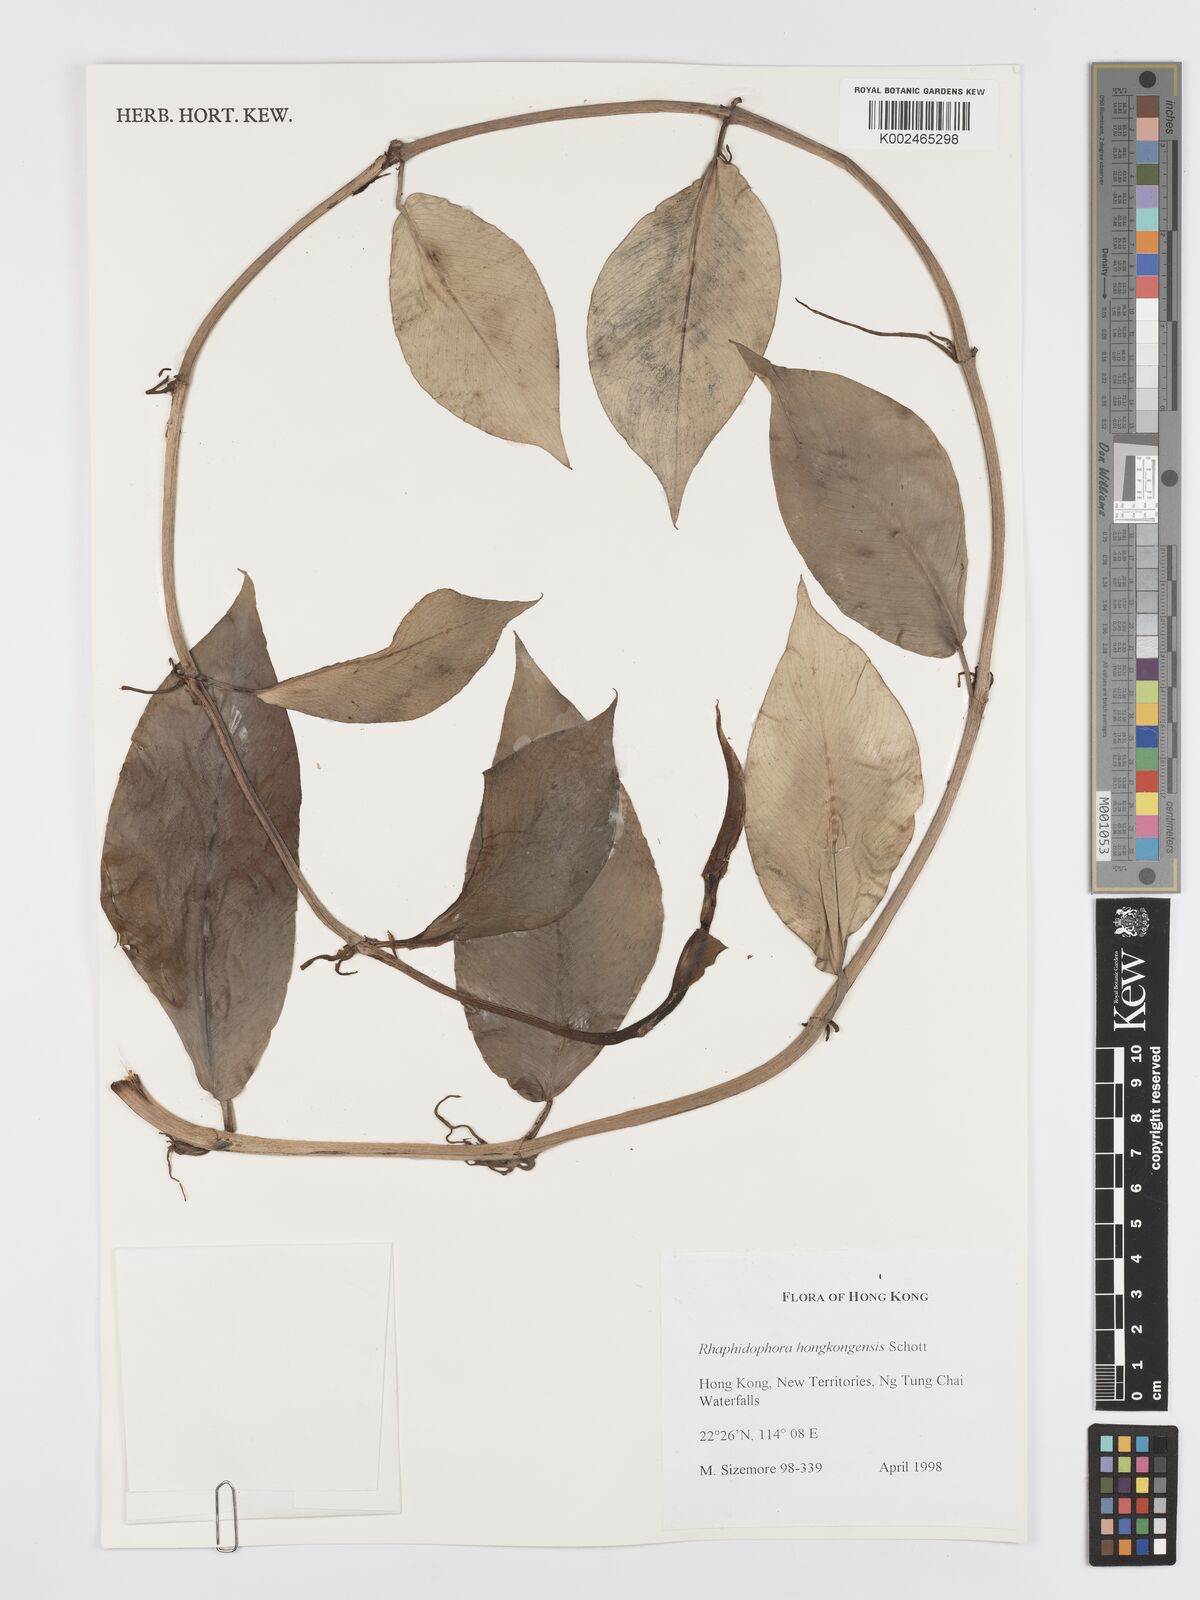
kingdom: Plantae
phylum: Tracheophyta
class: Liliopsida
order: Alismatales
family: Araceae
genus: Rhaphidophora
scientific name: Rhaphidophora hongkongensis
